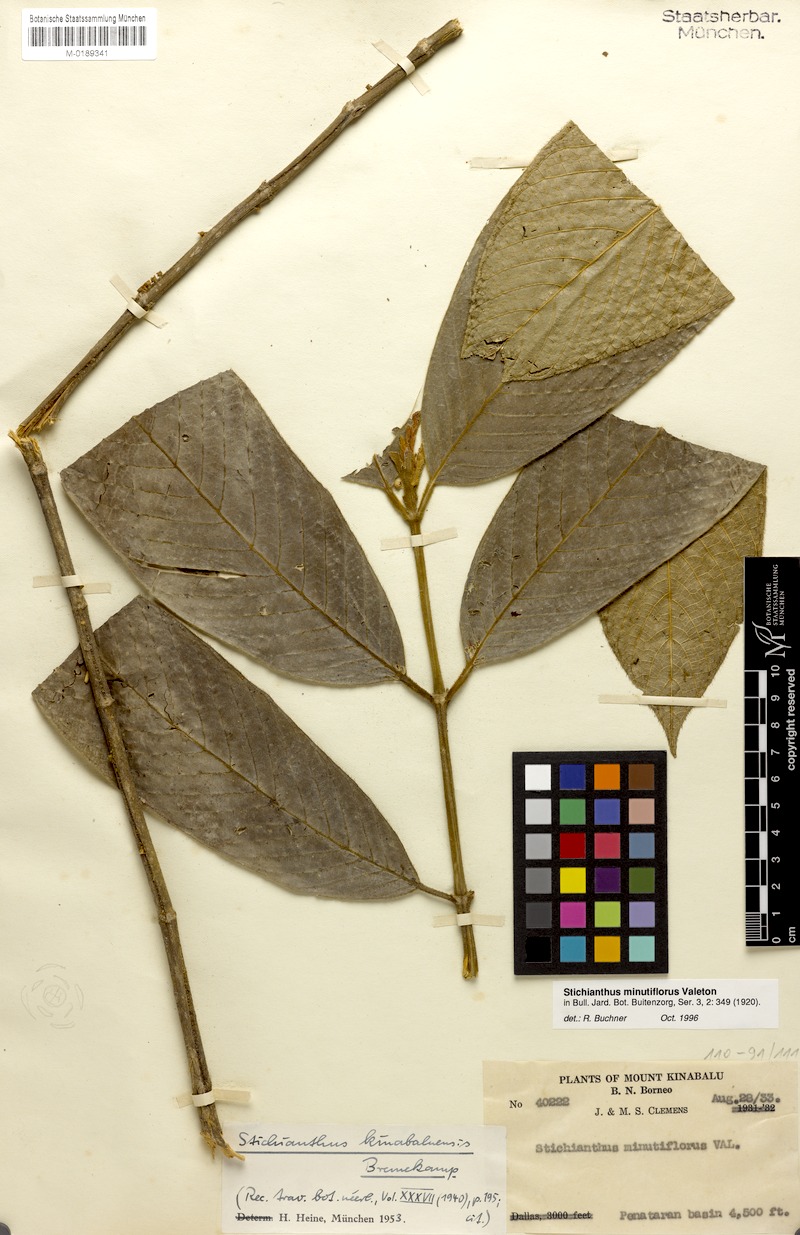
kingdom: Plantae
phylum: Tracheophyta
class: Magnoliopsida
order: Gentianales
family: Rubiaceae
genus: Stichianthus
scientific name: Stichianthus minutiflorus
